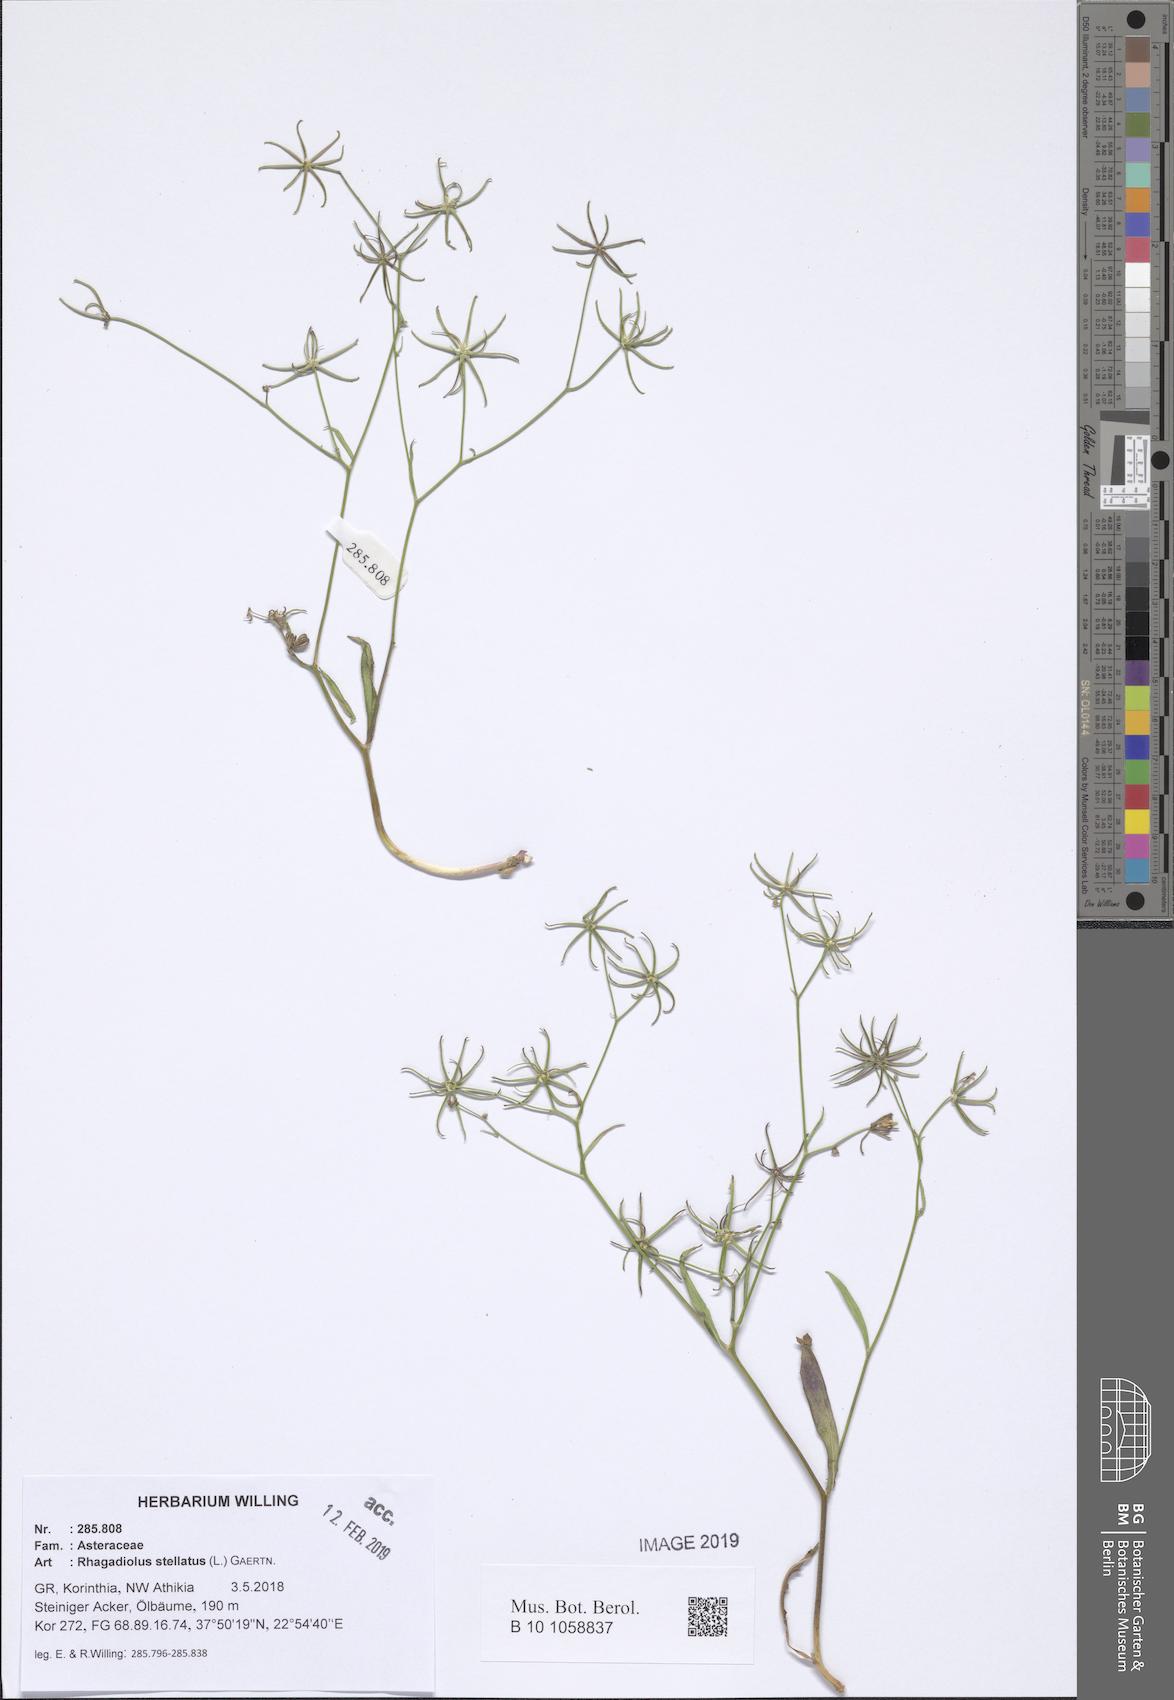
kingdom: Plantae
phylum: Tracheophyta
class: Magnoliopsida
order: Asterales
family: Asteraceae
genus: Rhagadiolus
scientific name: Rhagadiolus stellatus
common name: Star hawkbit
